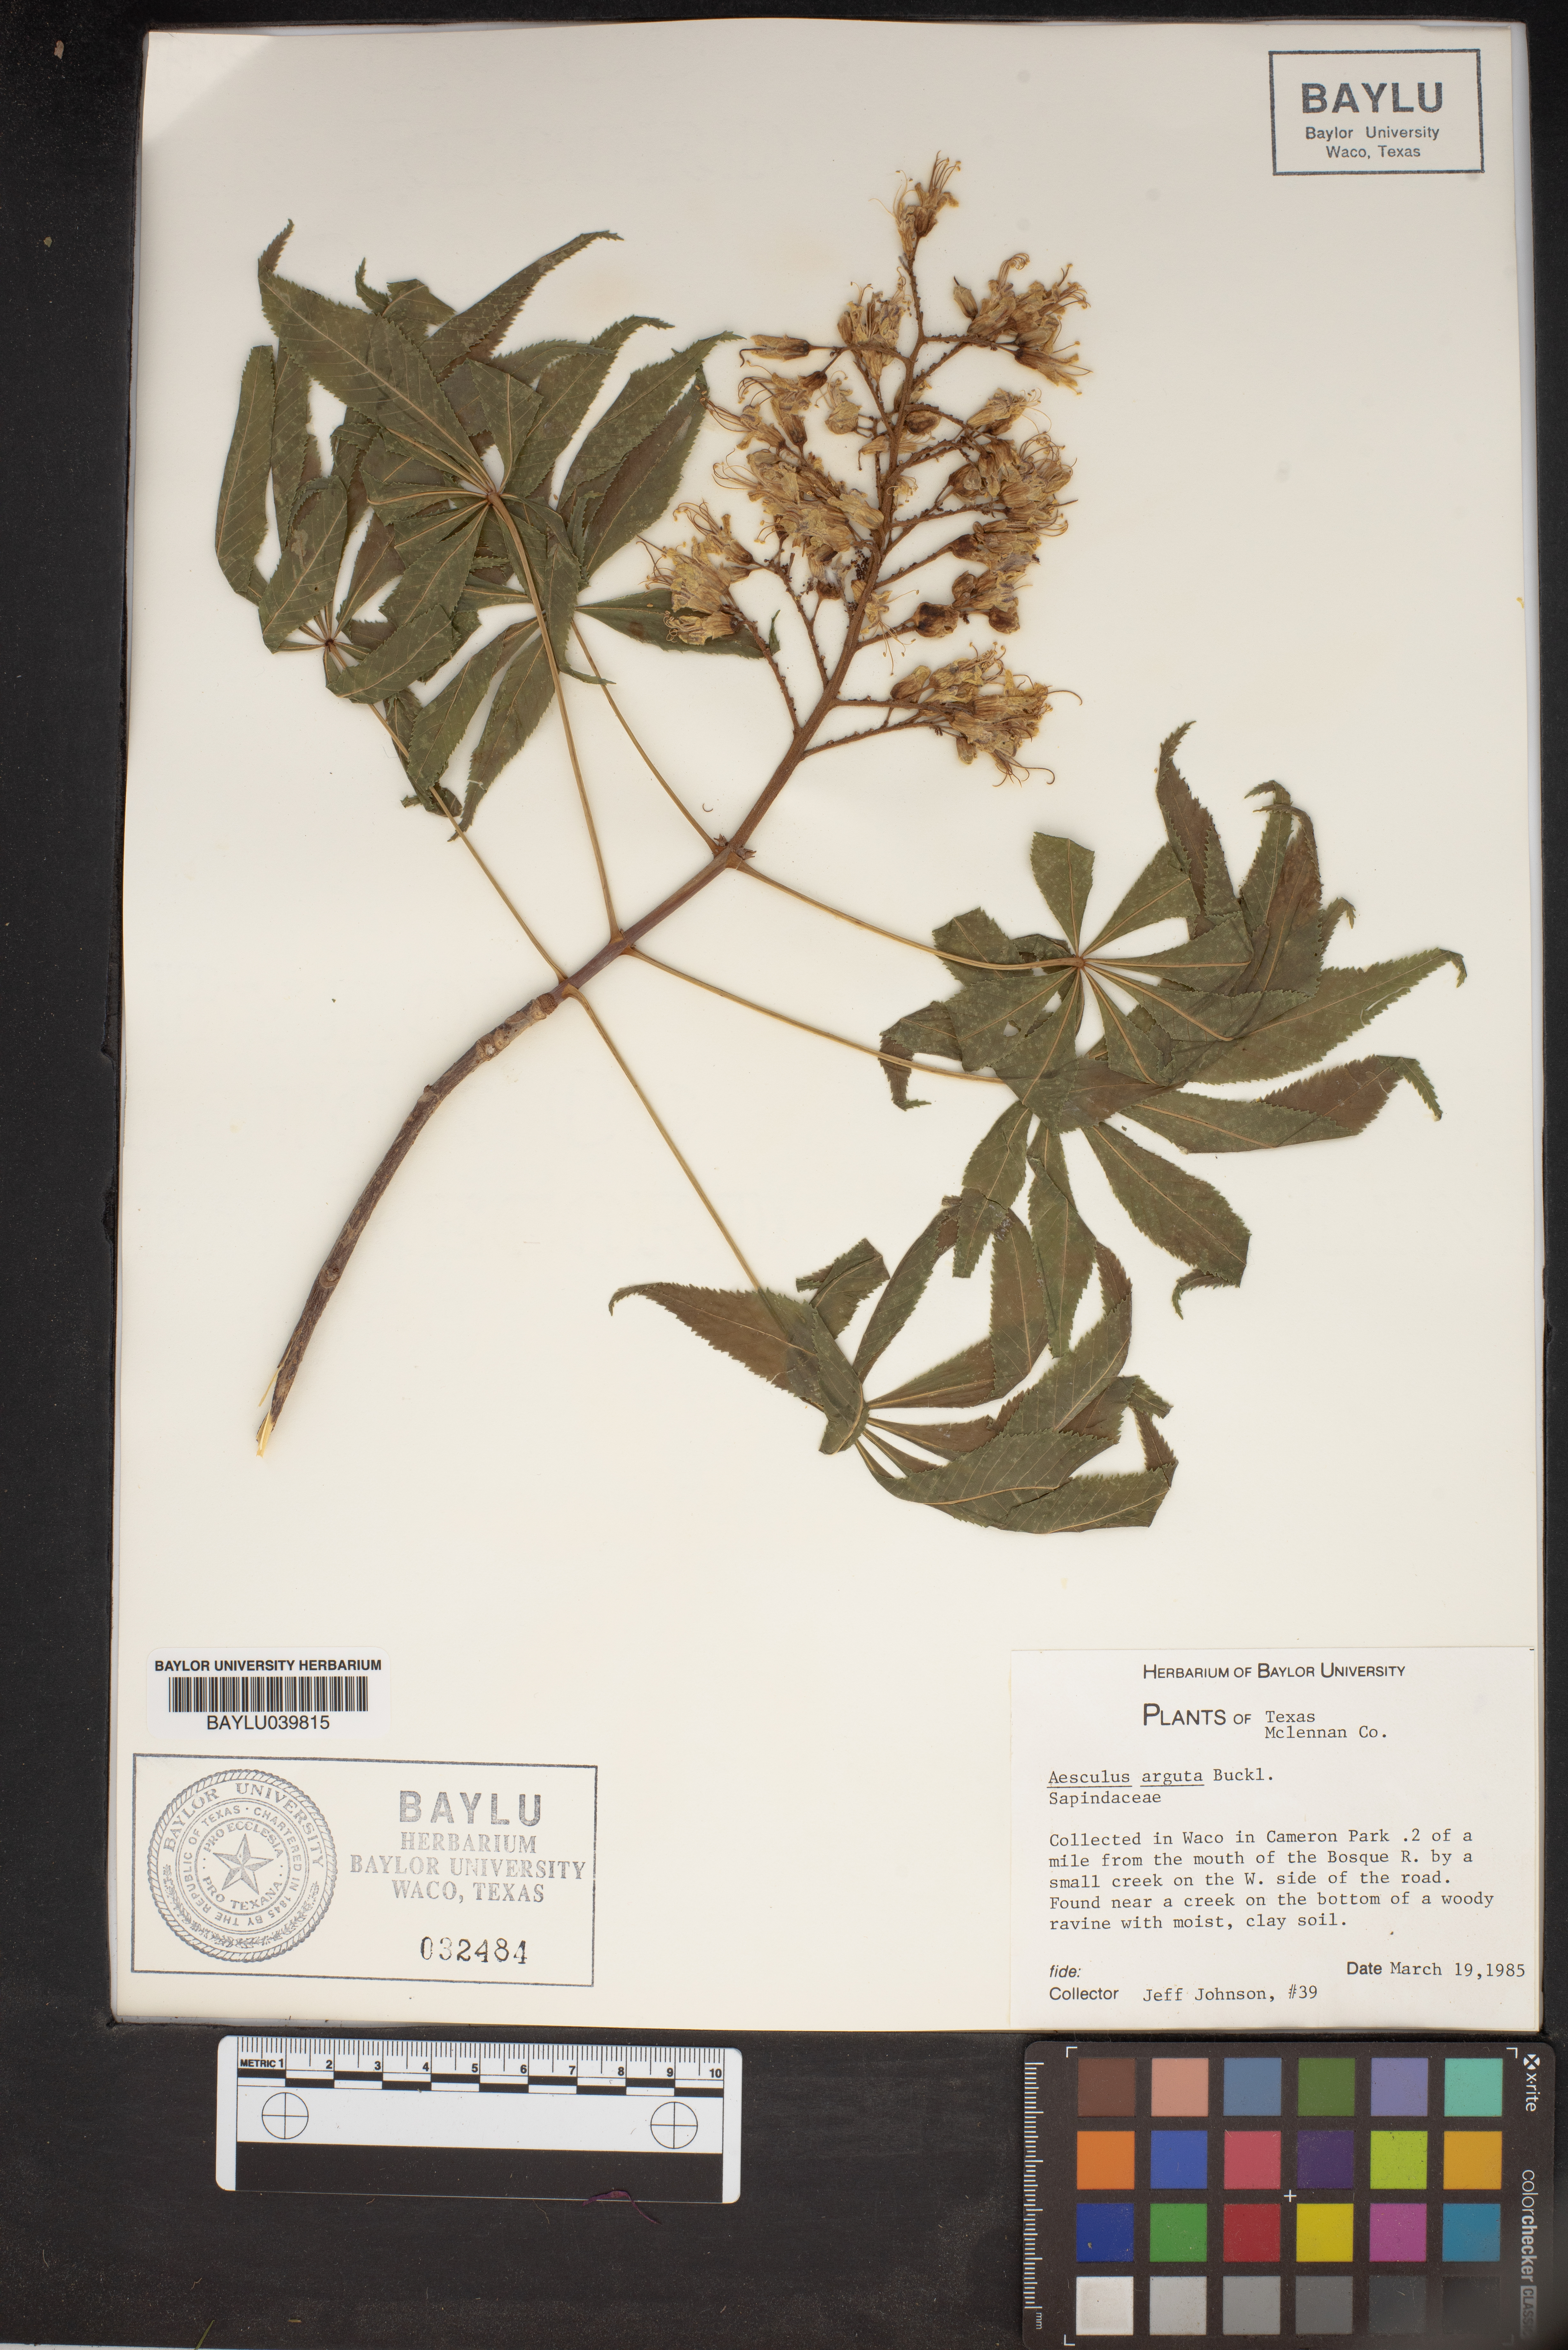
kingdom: Plantae
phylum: Tracheophyta
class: Magnoliopsida
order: Sapindales
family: Sapindaceae
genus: Aesculus
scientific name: Aesculus glabra
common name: Ohio buckeye
